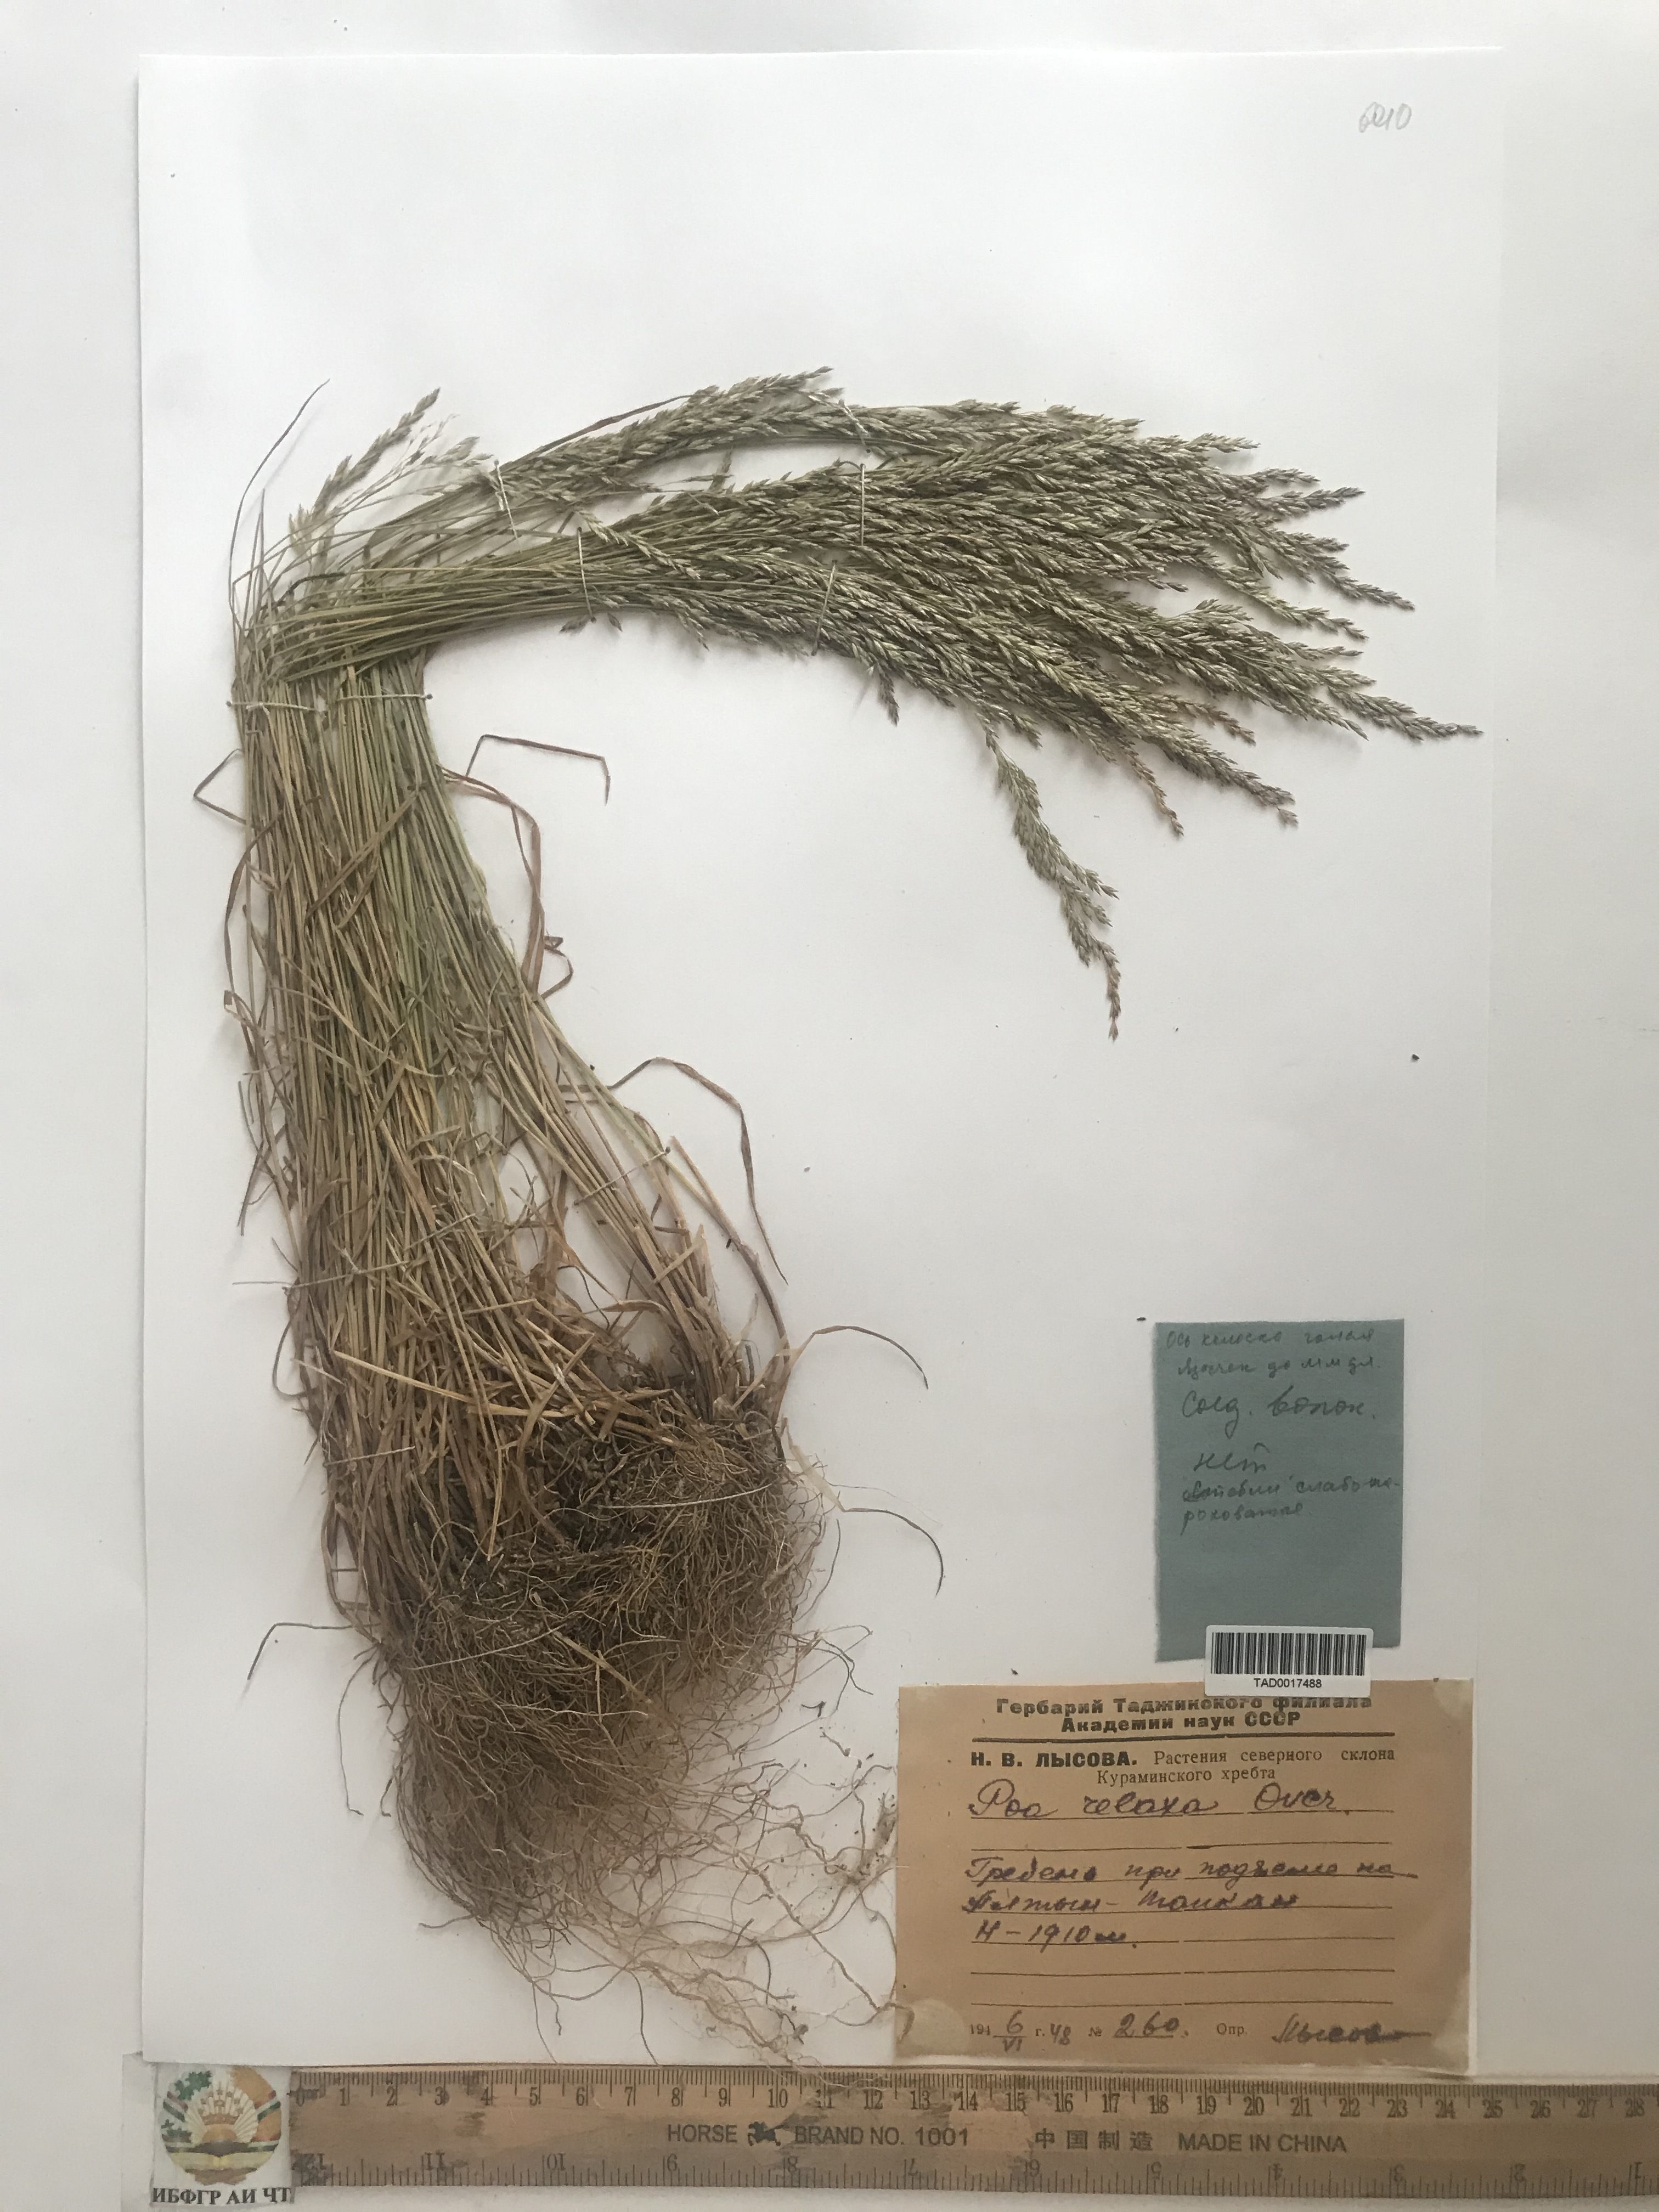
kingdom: Plantae
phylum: Tracheophyta
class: Liliopsida
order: Poales
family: Poaceae
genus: Poa
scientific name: Poa versicolor
